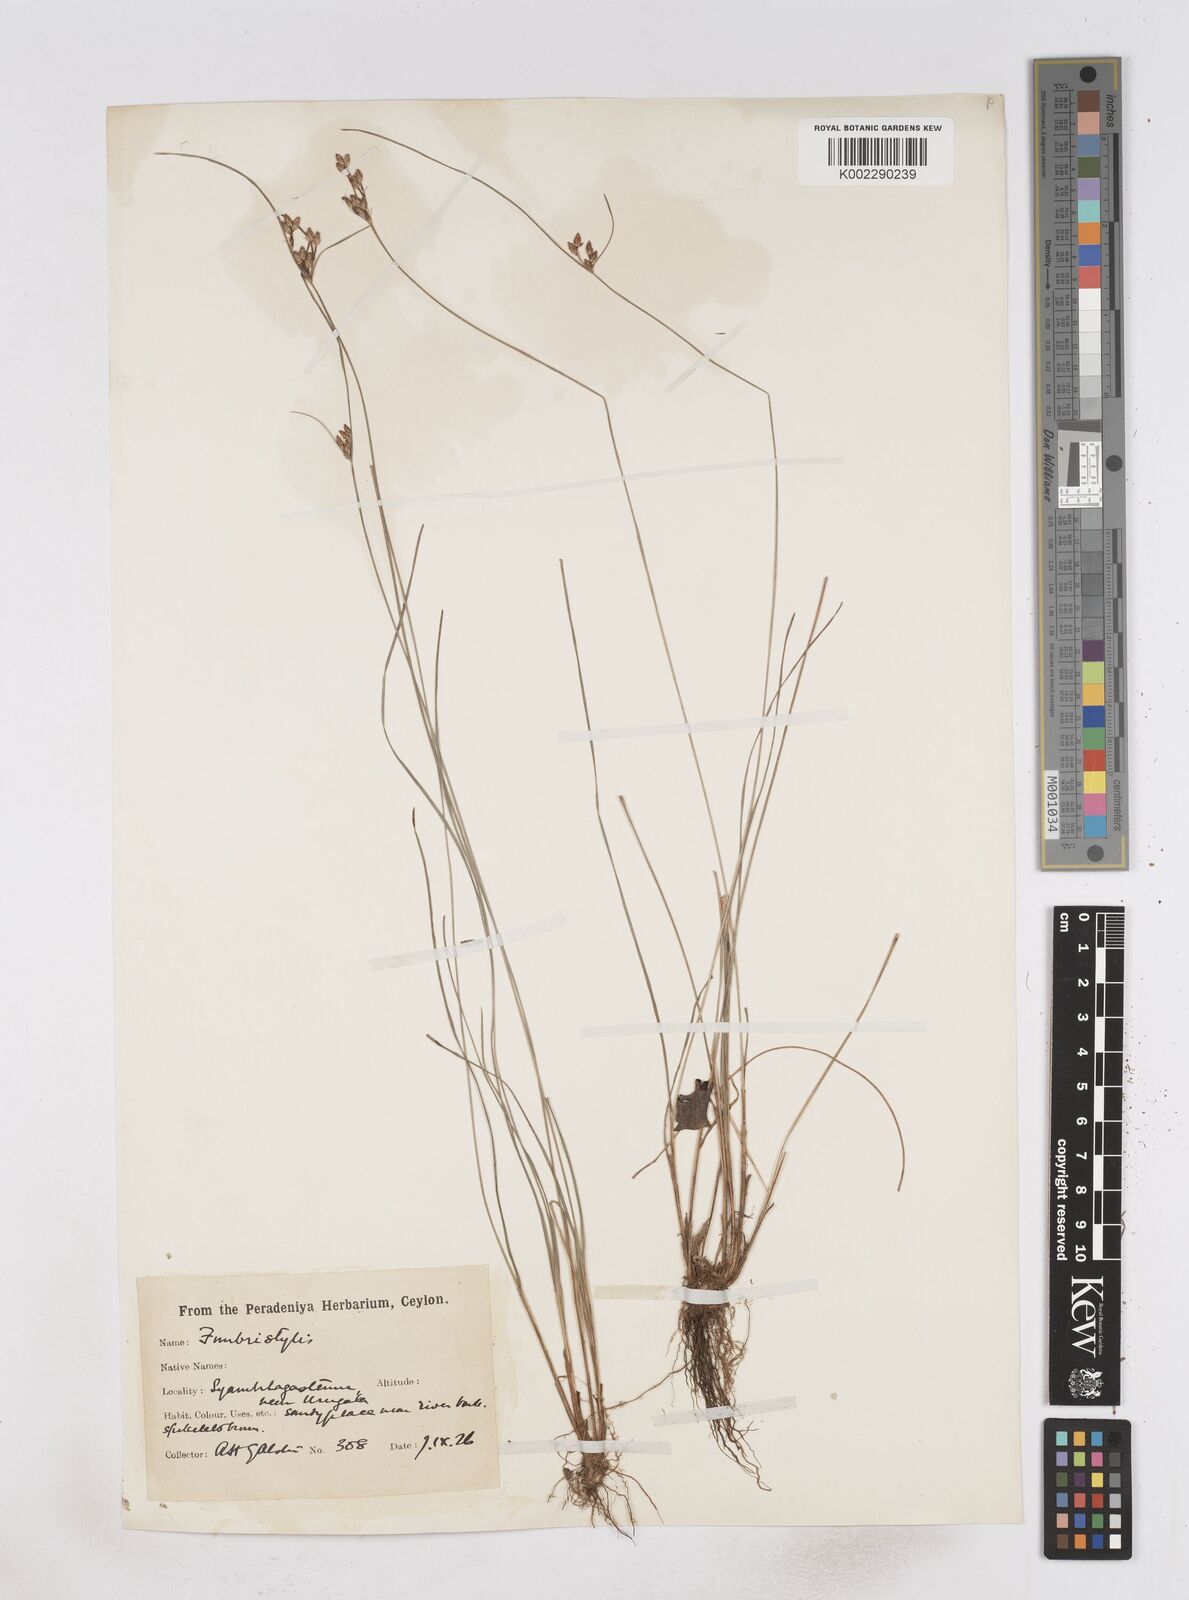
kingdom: Plantae
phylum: Tracheophyta
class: Liliopsida
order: Poales
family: Cyperaceae
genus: Fimbristylis
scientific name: Fimbristylis
